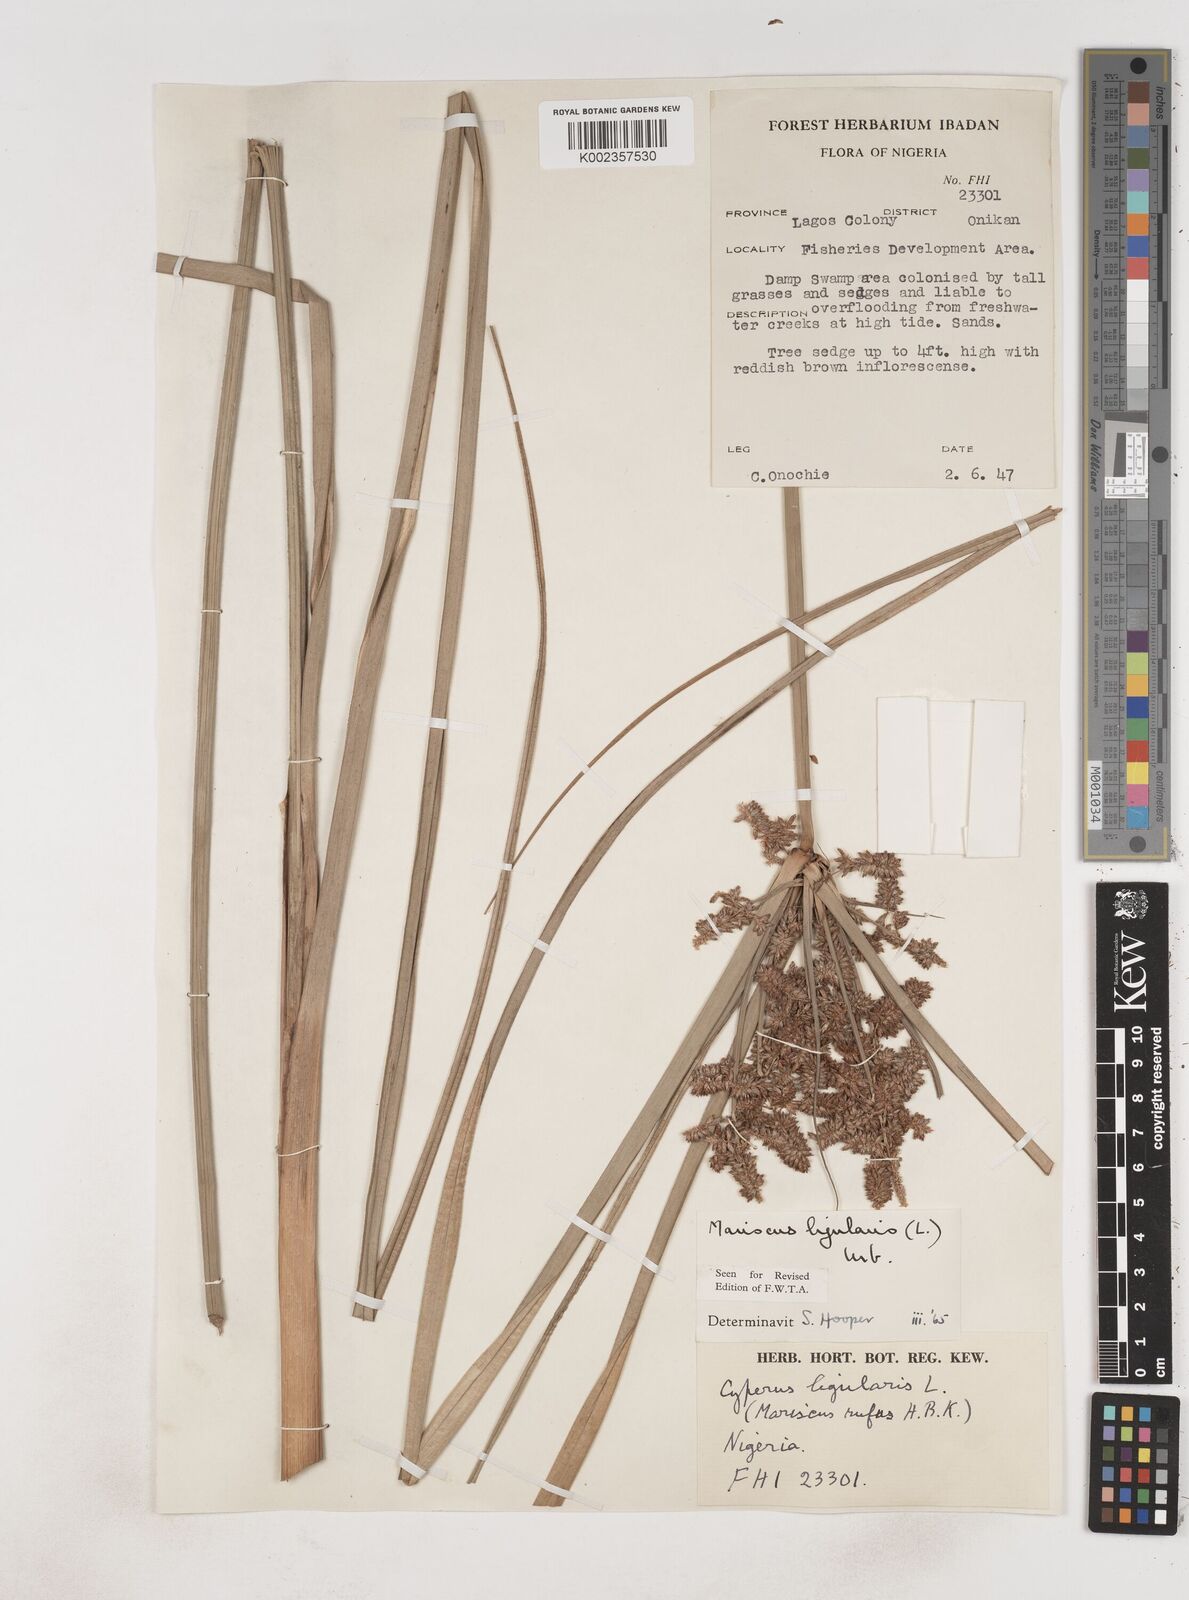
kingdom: Plantae
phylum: Tracheophyta
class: Liliopsida
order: Poales
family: Cyperaceae
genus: Cyperus
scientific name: Cyperus ligularis
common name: Swamp flat sedge
